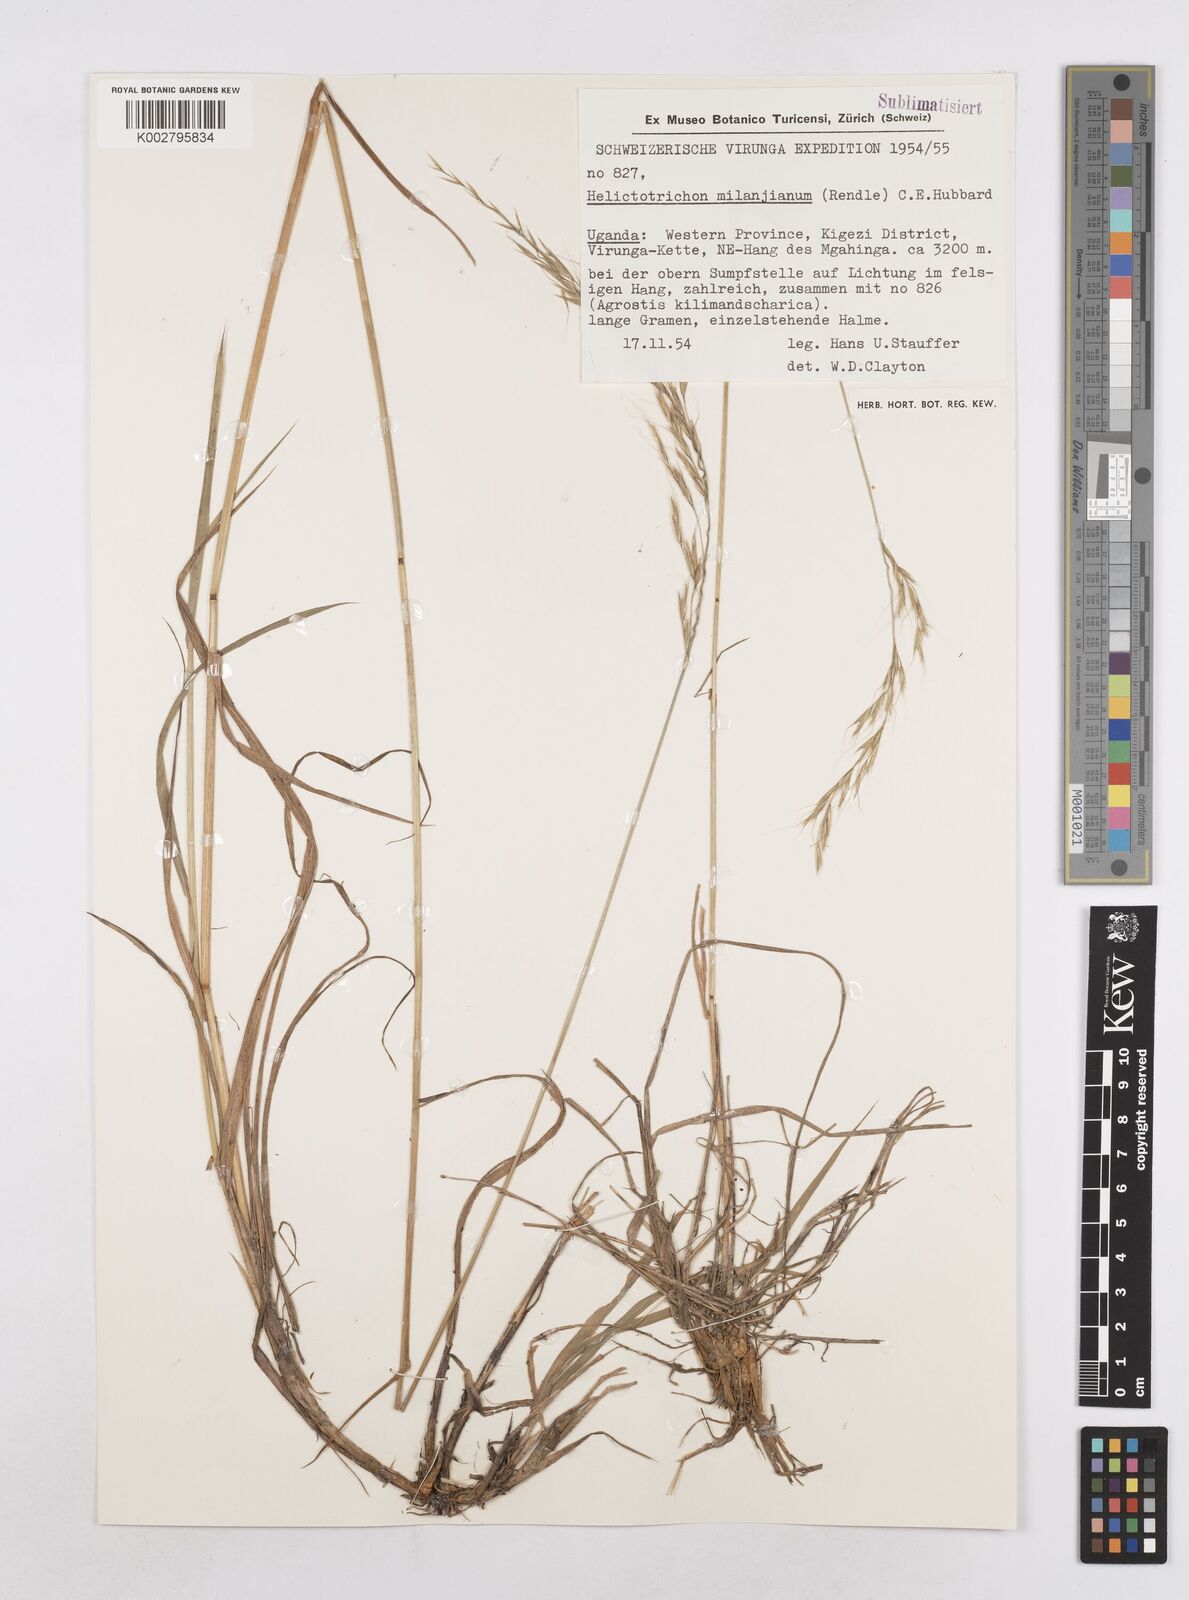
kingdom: Plantae
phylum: Tracheophyta
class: Liliopsida
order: Poales
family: Poaceae
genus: Trisetopsis
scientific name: Trisetopsis milanjiana
